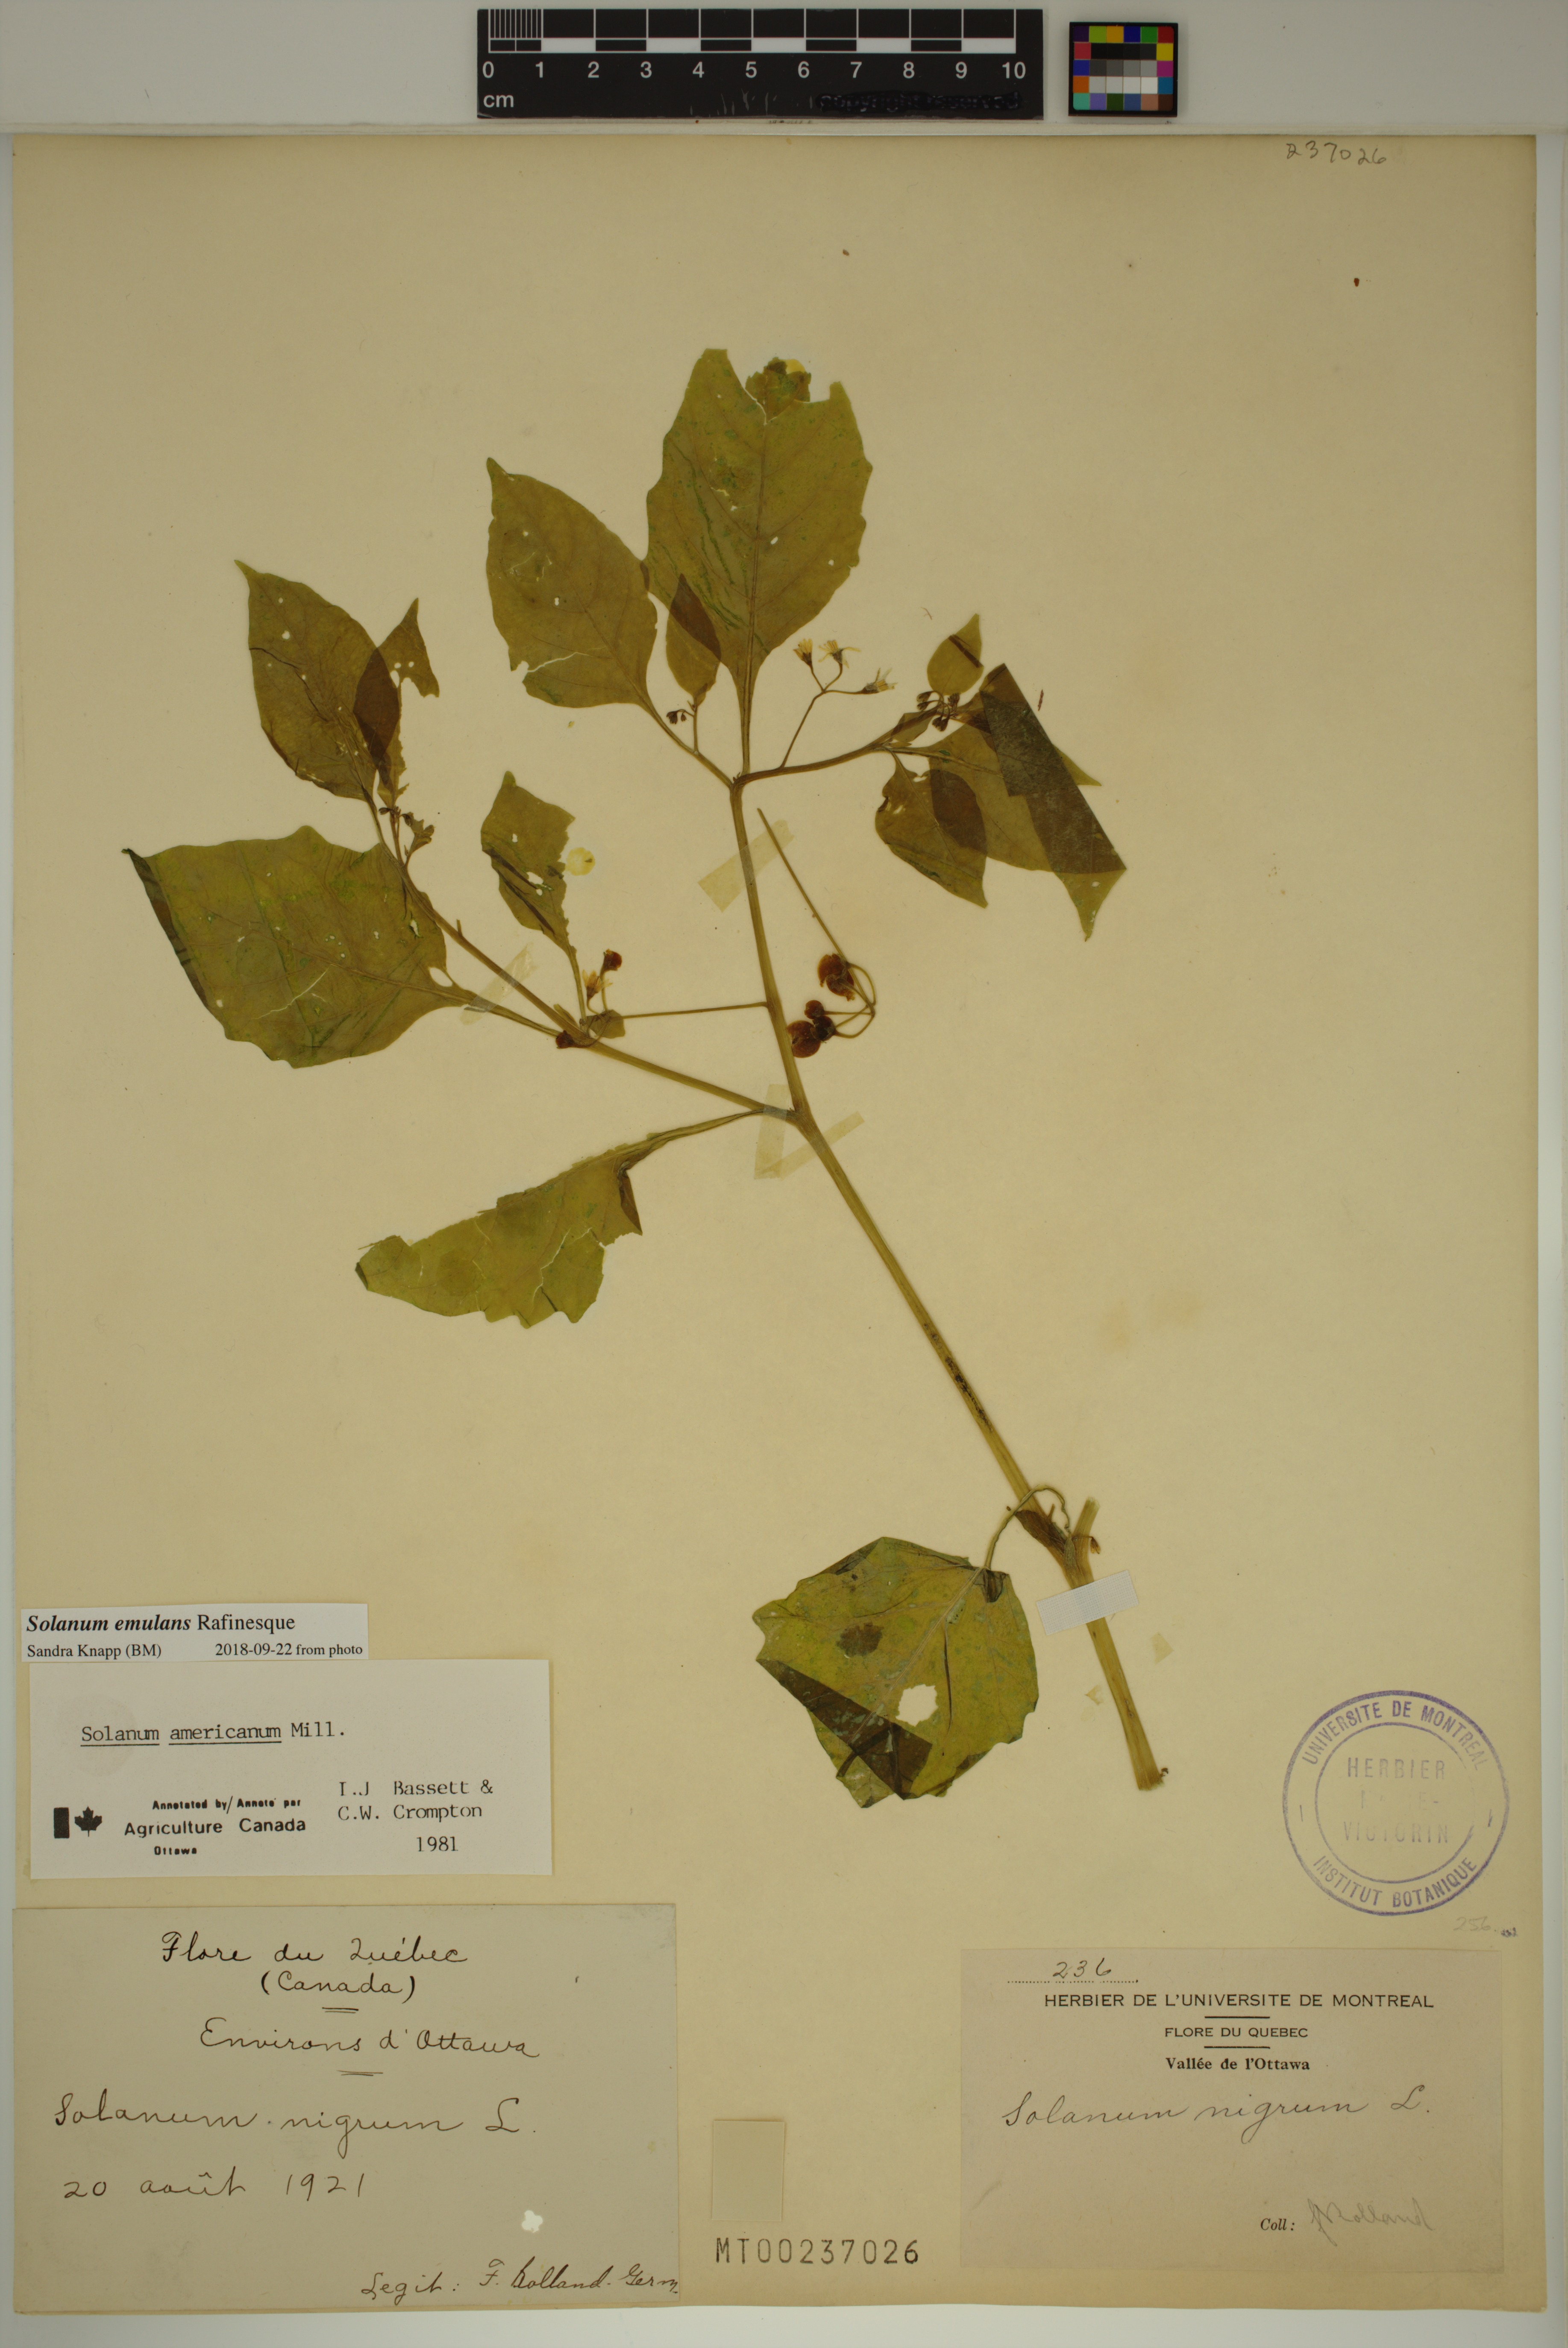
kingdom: Plantae
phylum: Tracheophyta
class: Magnoliopsida
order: Solanales
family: Solanaceae
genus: Solanum
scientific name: Solanum emulans
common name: Eastern black nightshade
